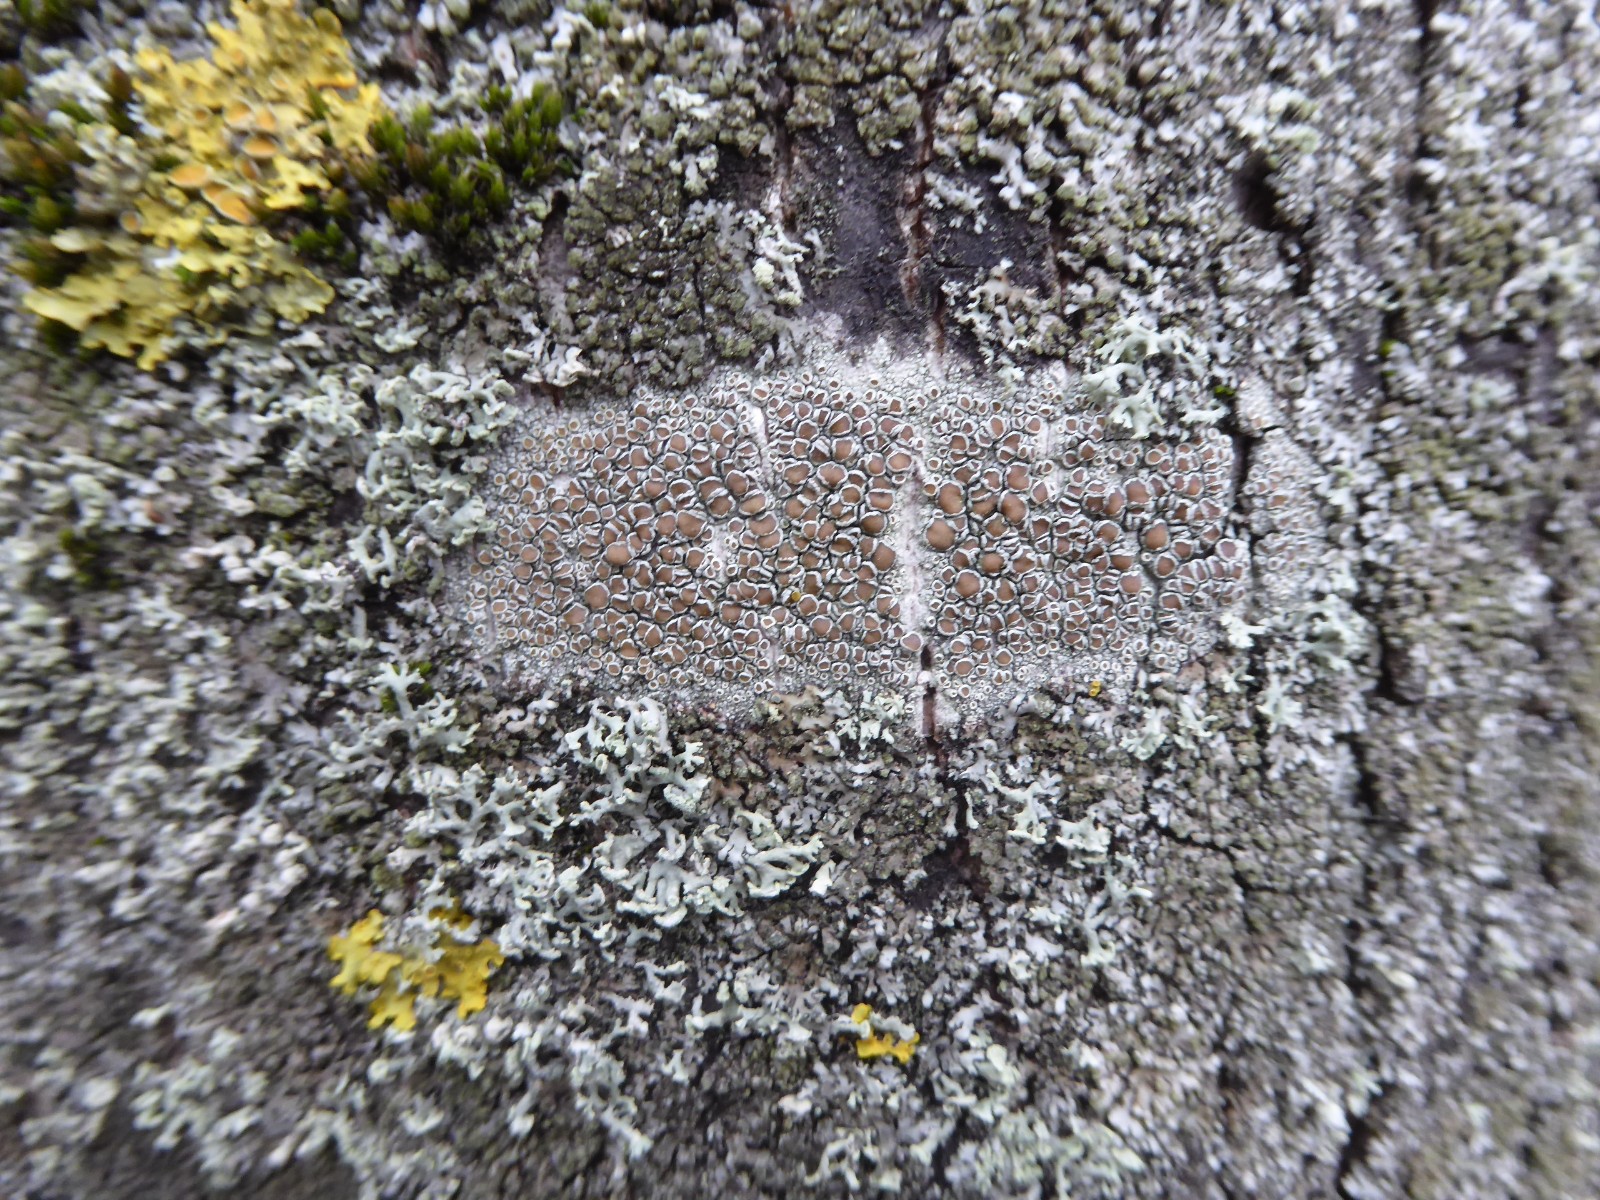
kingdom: Fungi
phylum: Ascomycota
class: Lecanoromycetes
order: Lecanorales
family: Lecanoraceae
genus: Lecanora
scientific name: Lecanora chlarotera
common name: brun kantskivelav
